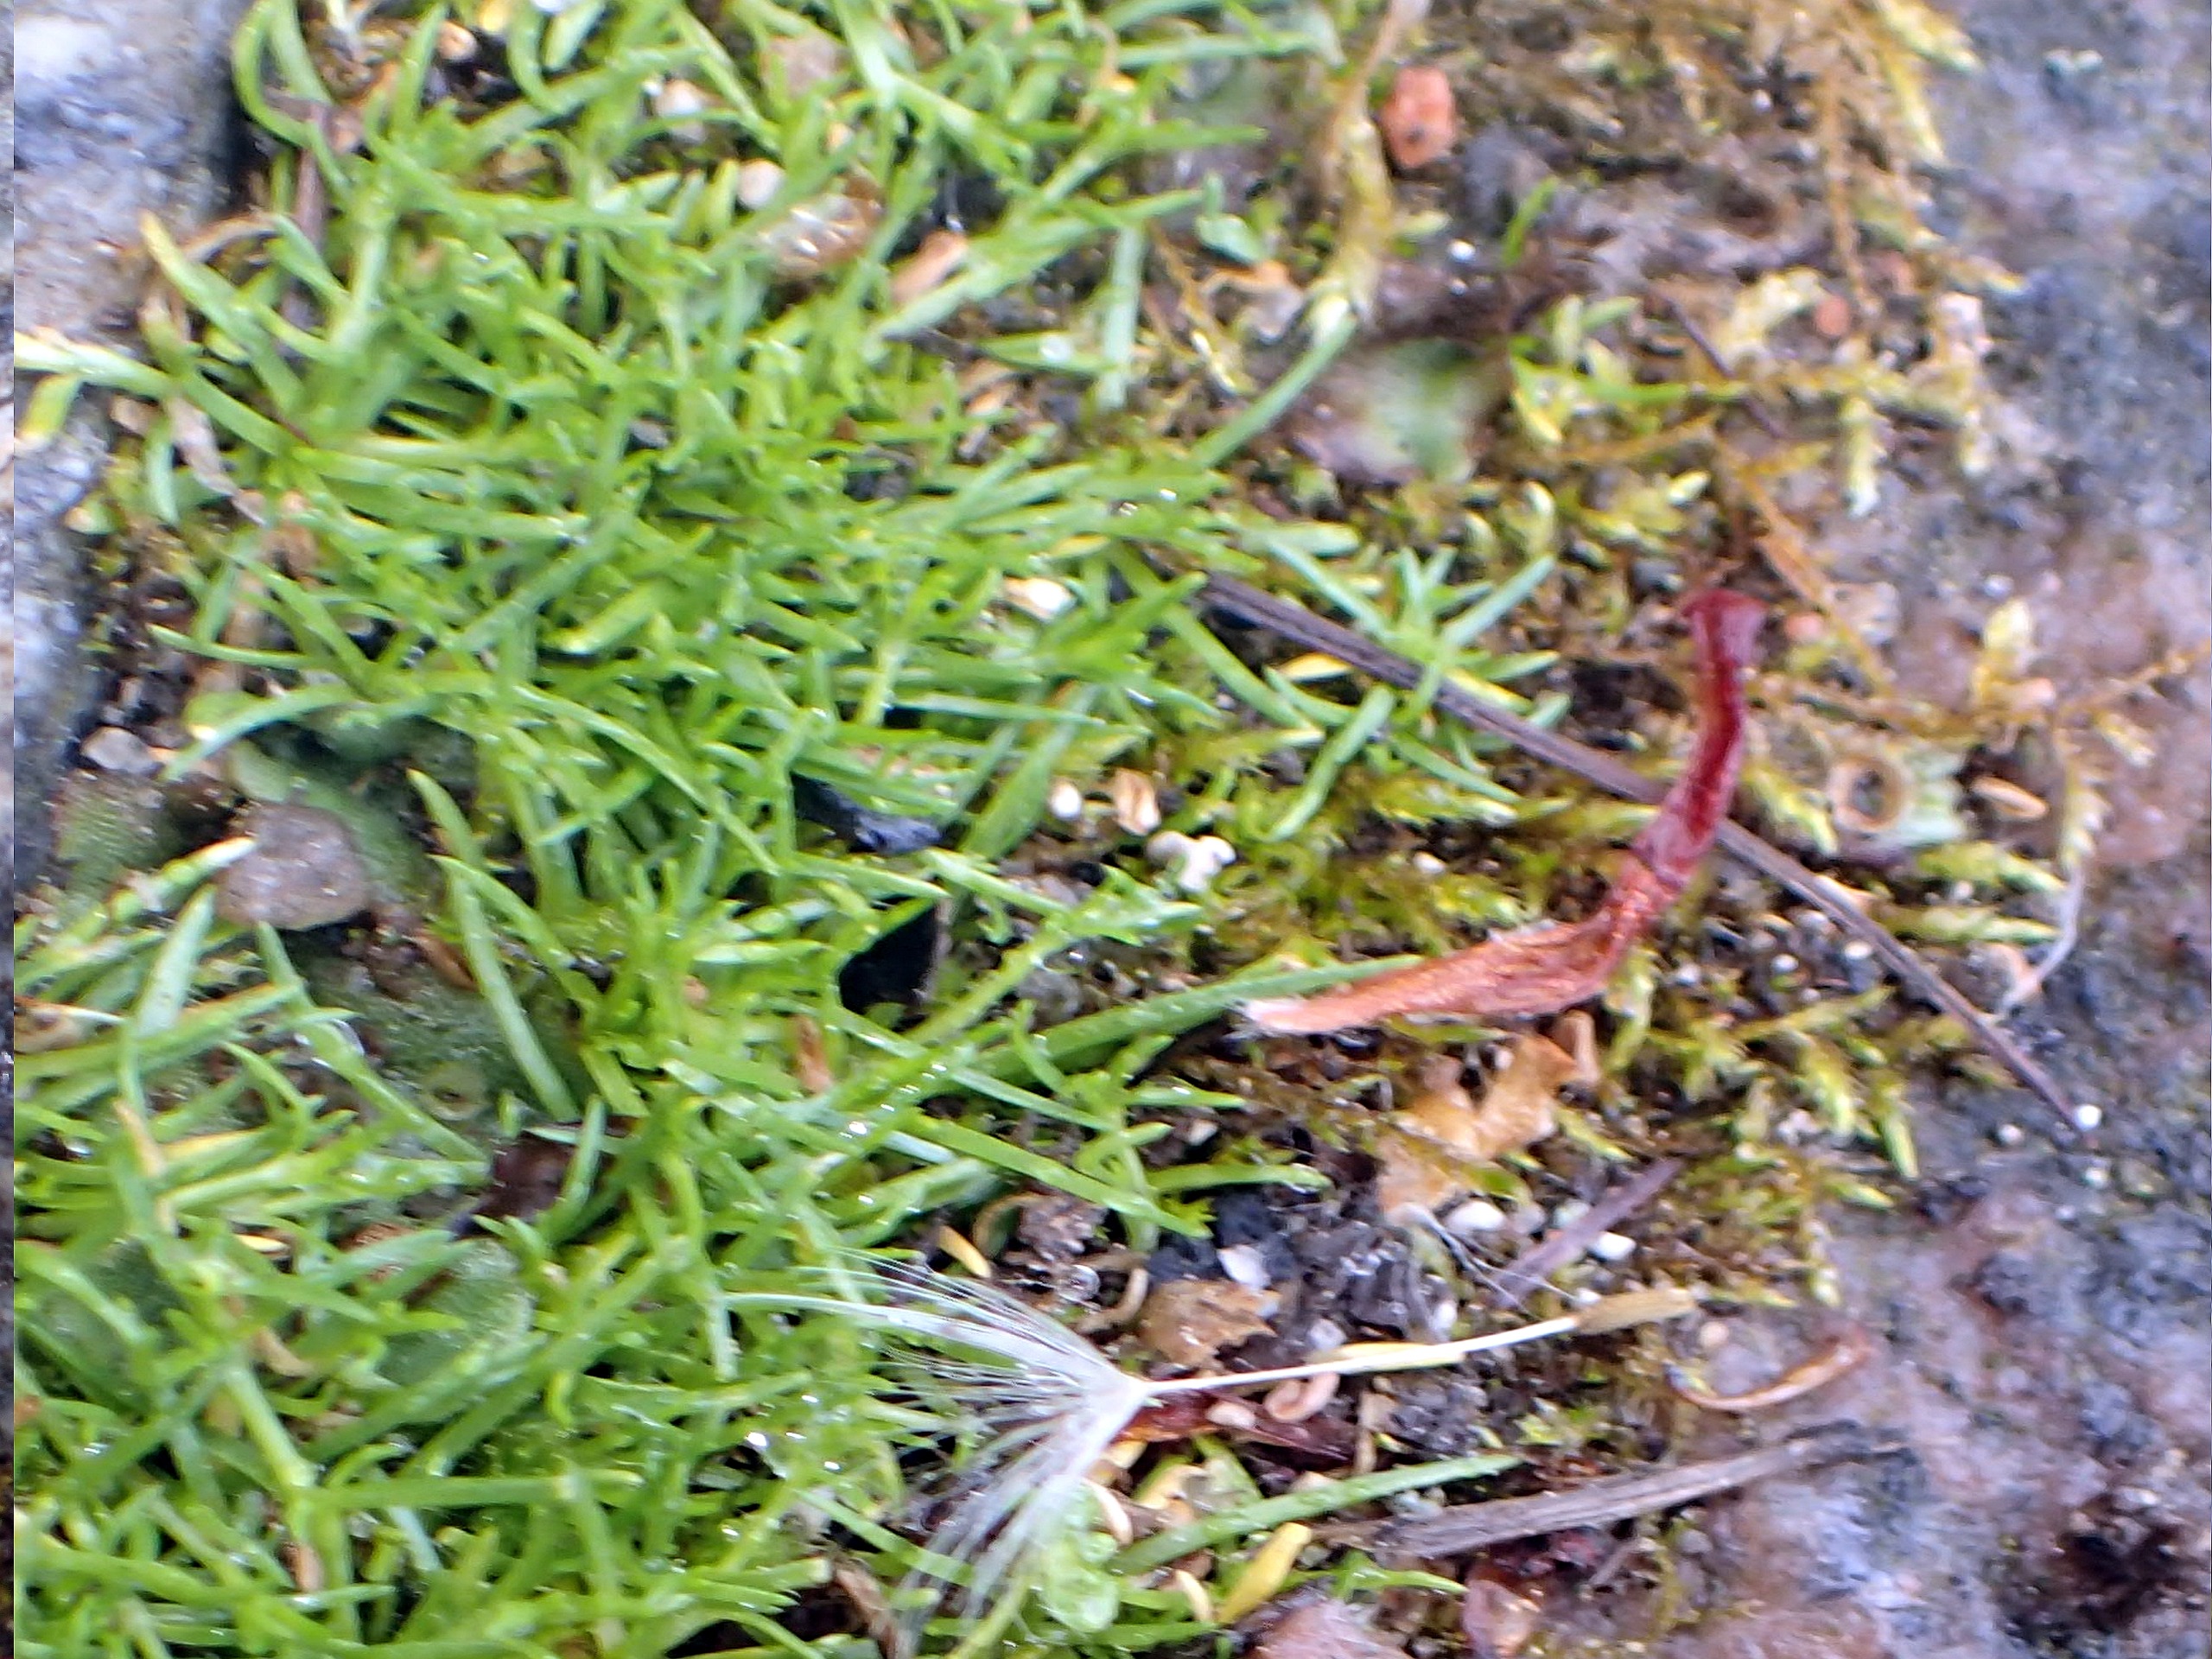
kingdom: Plantae
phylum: Tracheophyta
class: Magnoliopsida
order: Caryophyllales
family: Caryophyllaceae
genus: Sagina
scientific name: Sagina procumbens
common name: Almindelig firling
